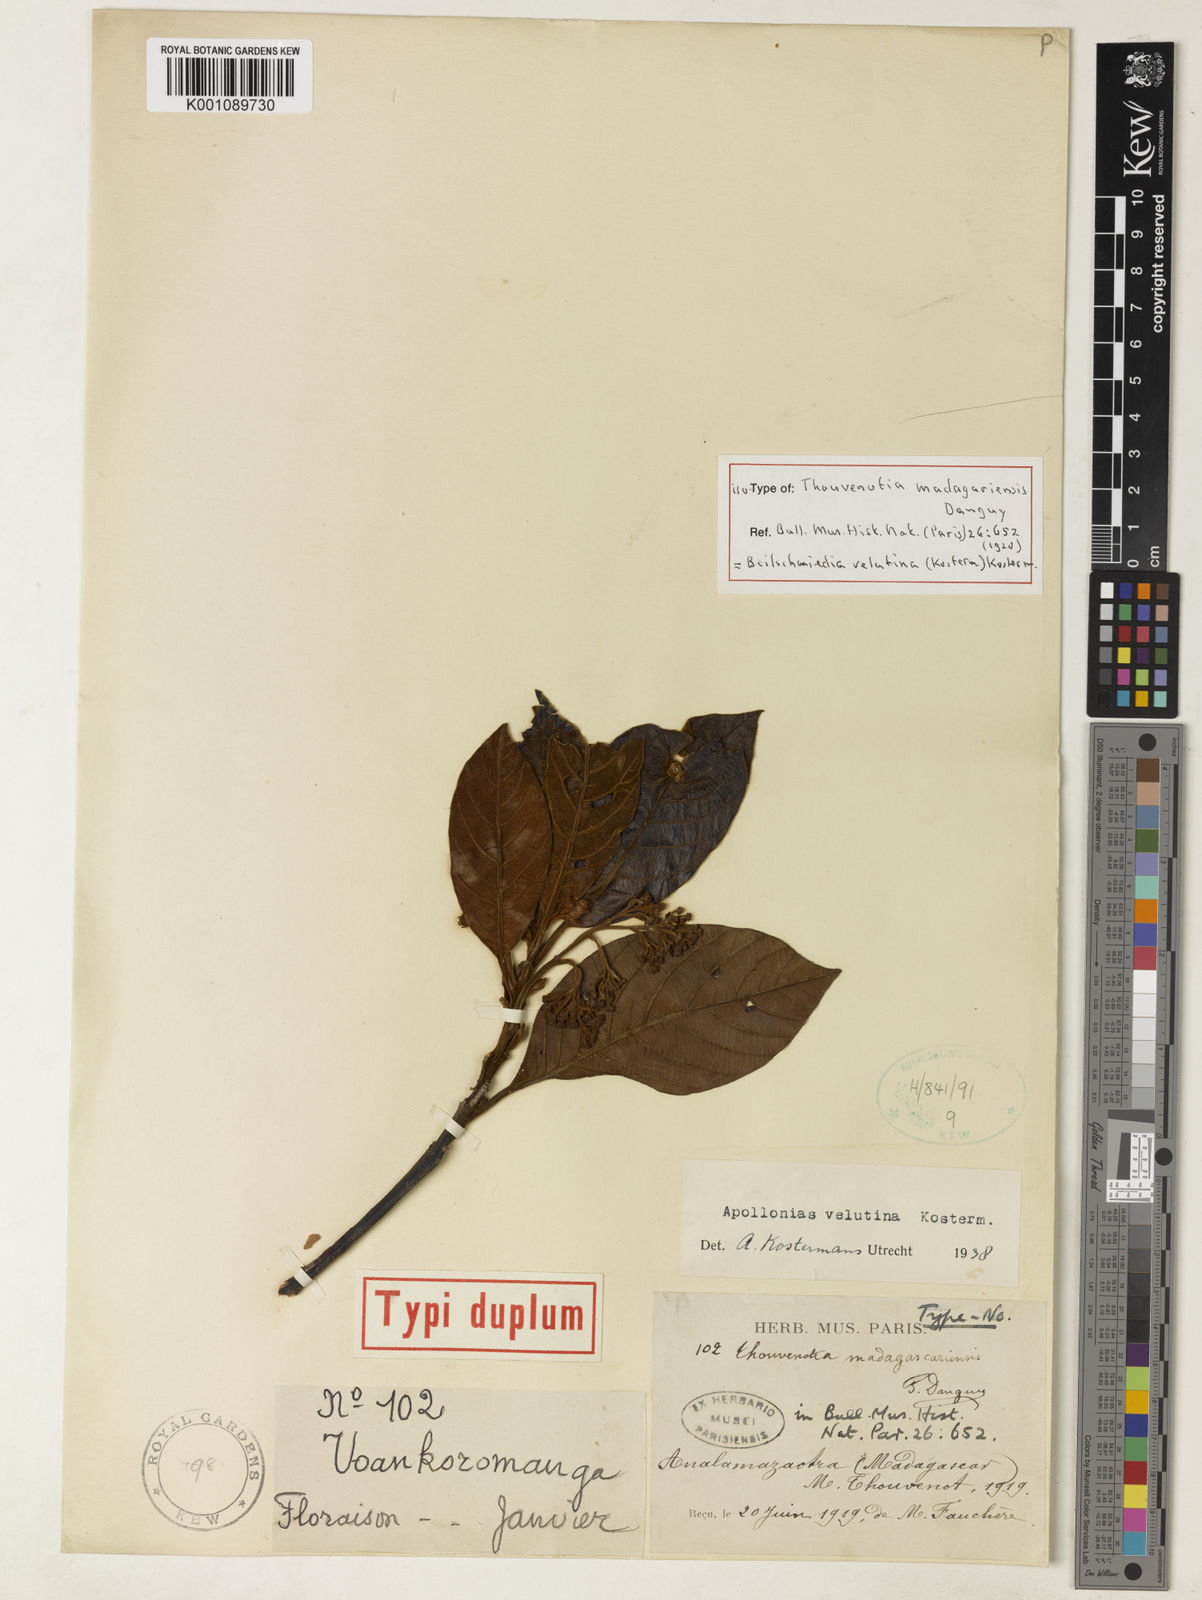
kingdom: Plantae
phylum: Tracheophyta
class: Magnoliopsida
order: Laurales
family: Lauraceae
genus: Beilschmiedia
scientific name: Beilschmiedia velutina
